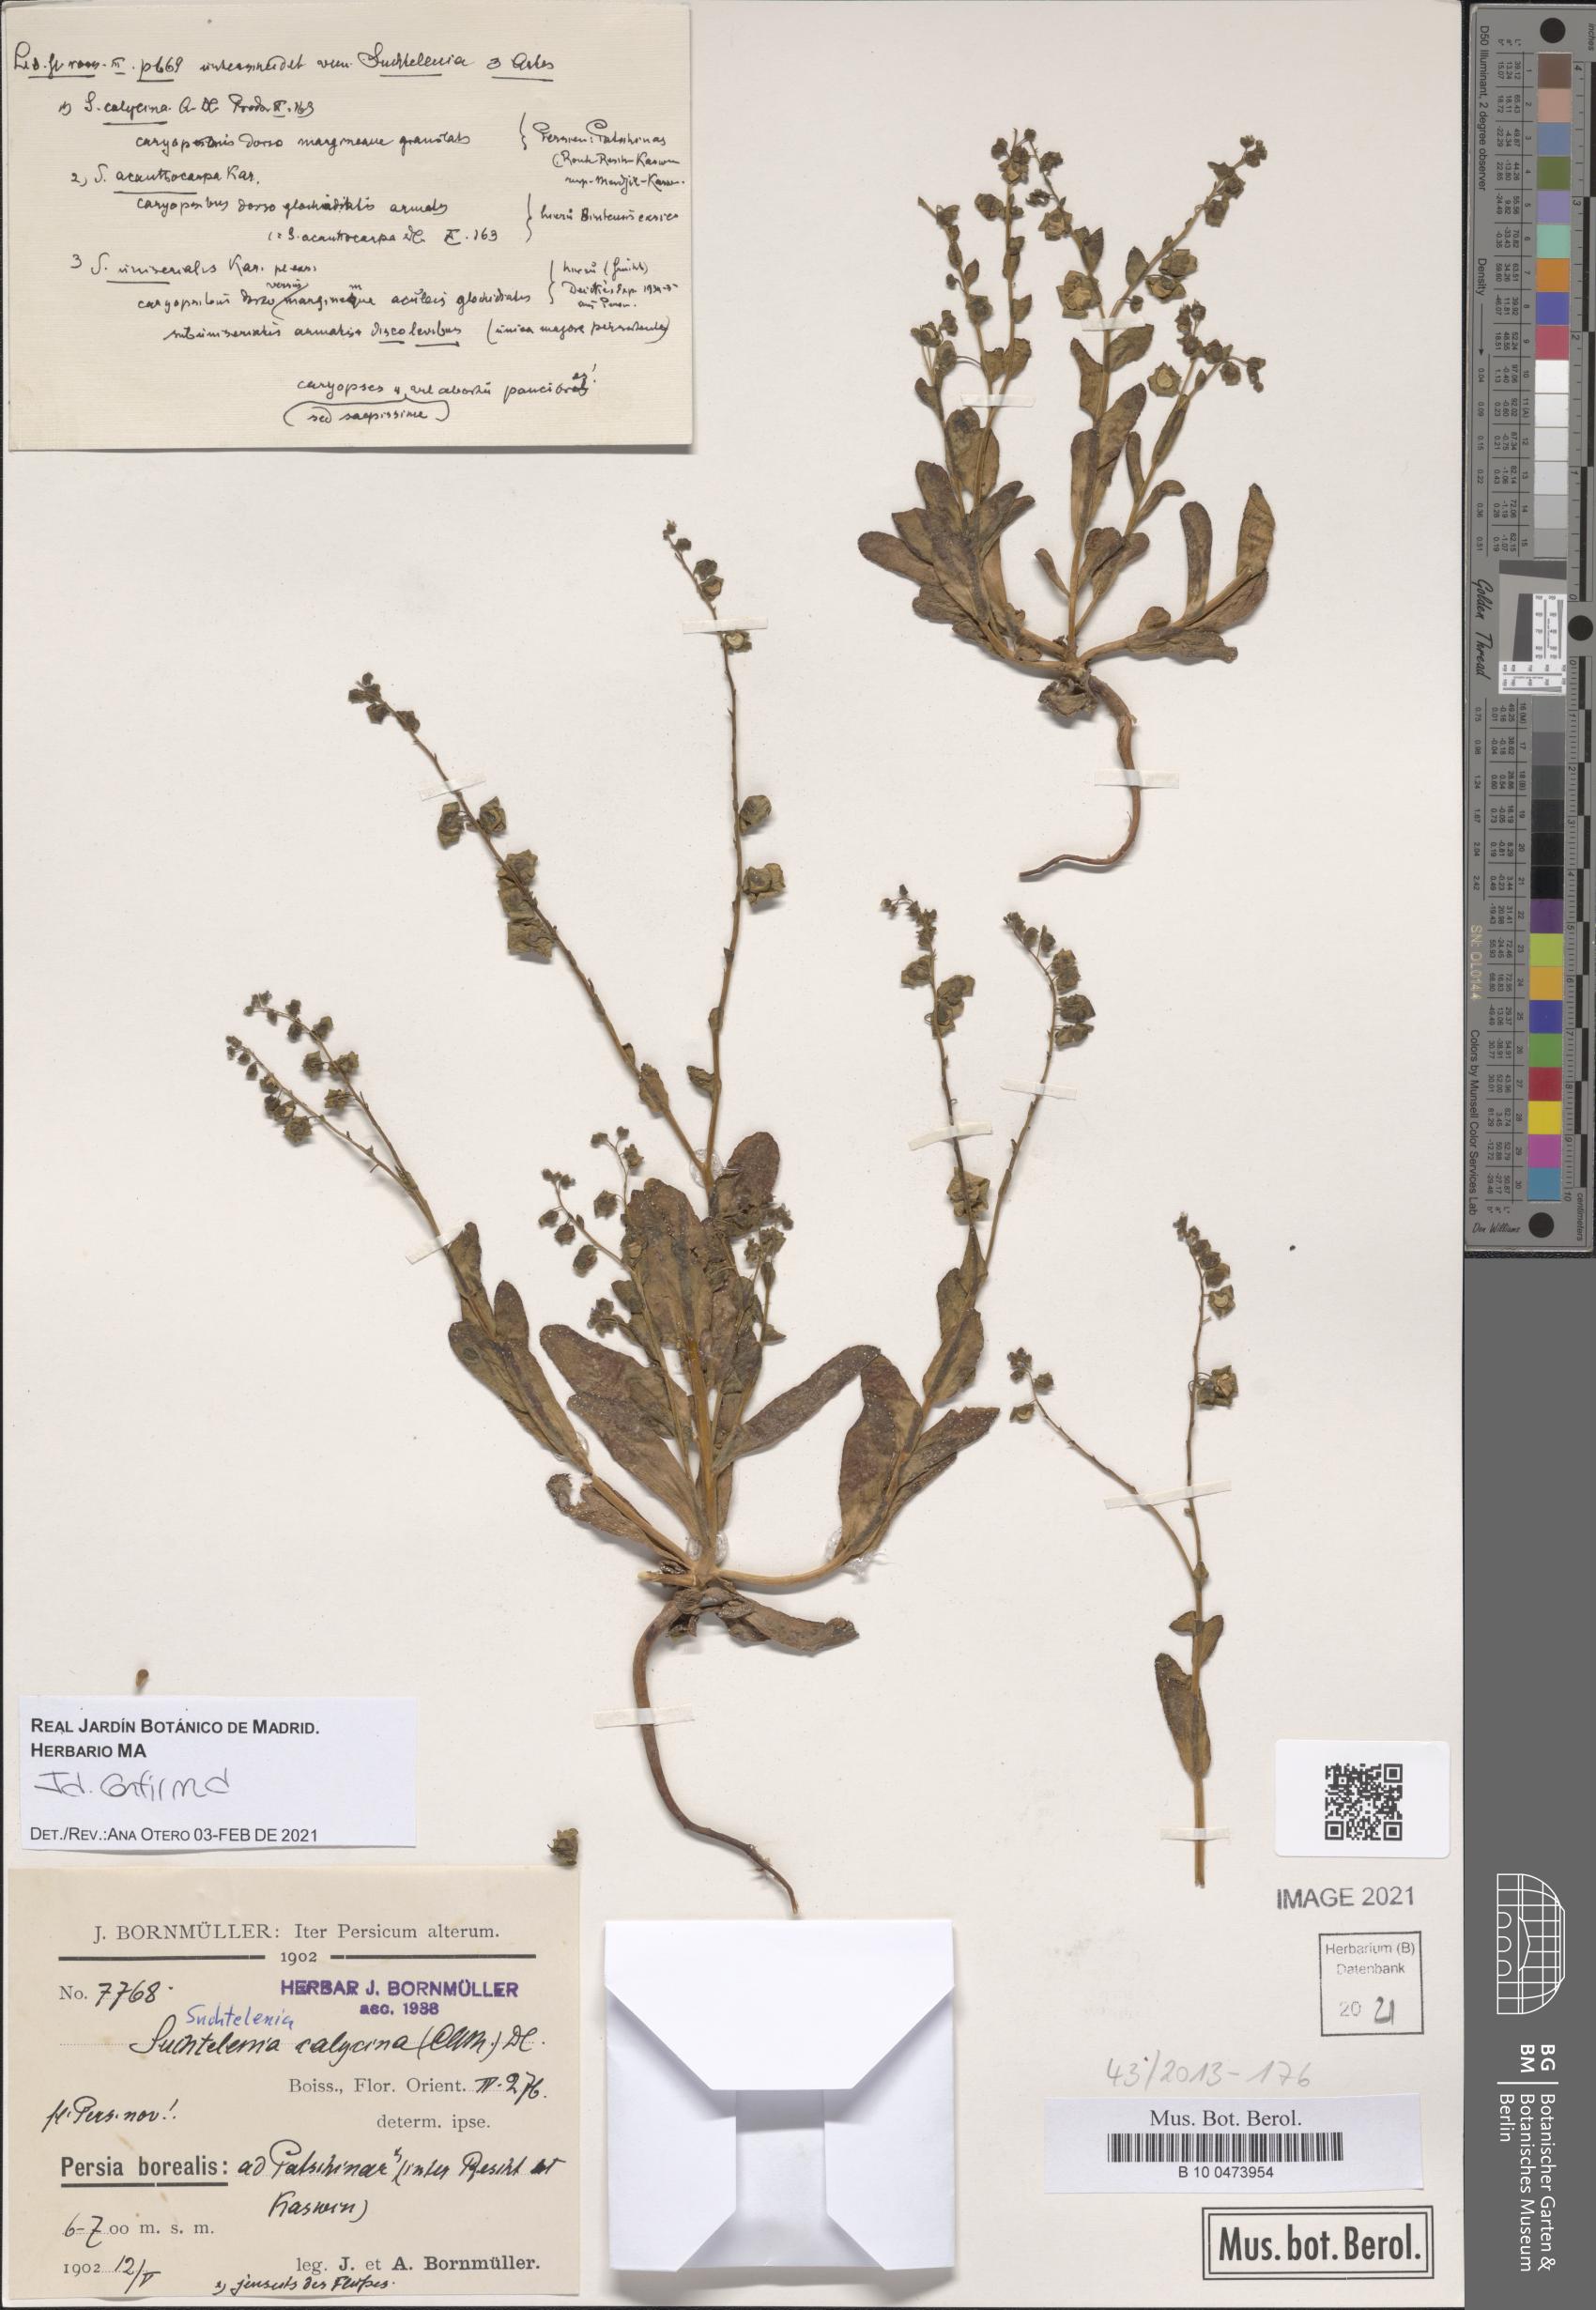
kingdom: Plantae
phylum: Tracheophyta
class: Magnoliopsida
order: Boraginales
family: Boraginaceae
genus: Suchtelenia
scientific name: Suchtelenia calycina
